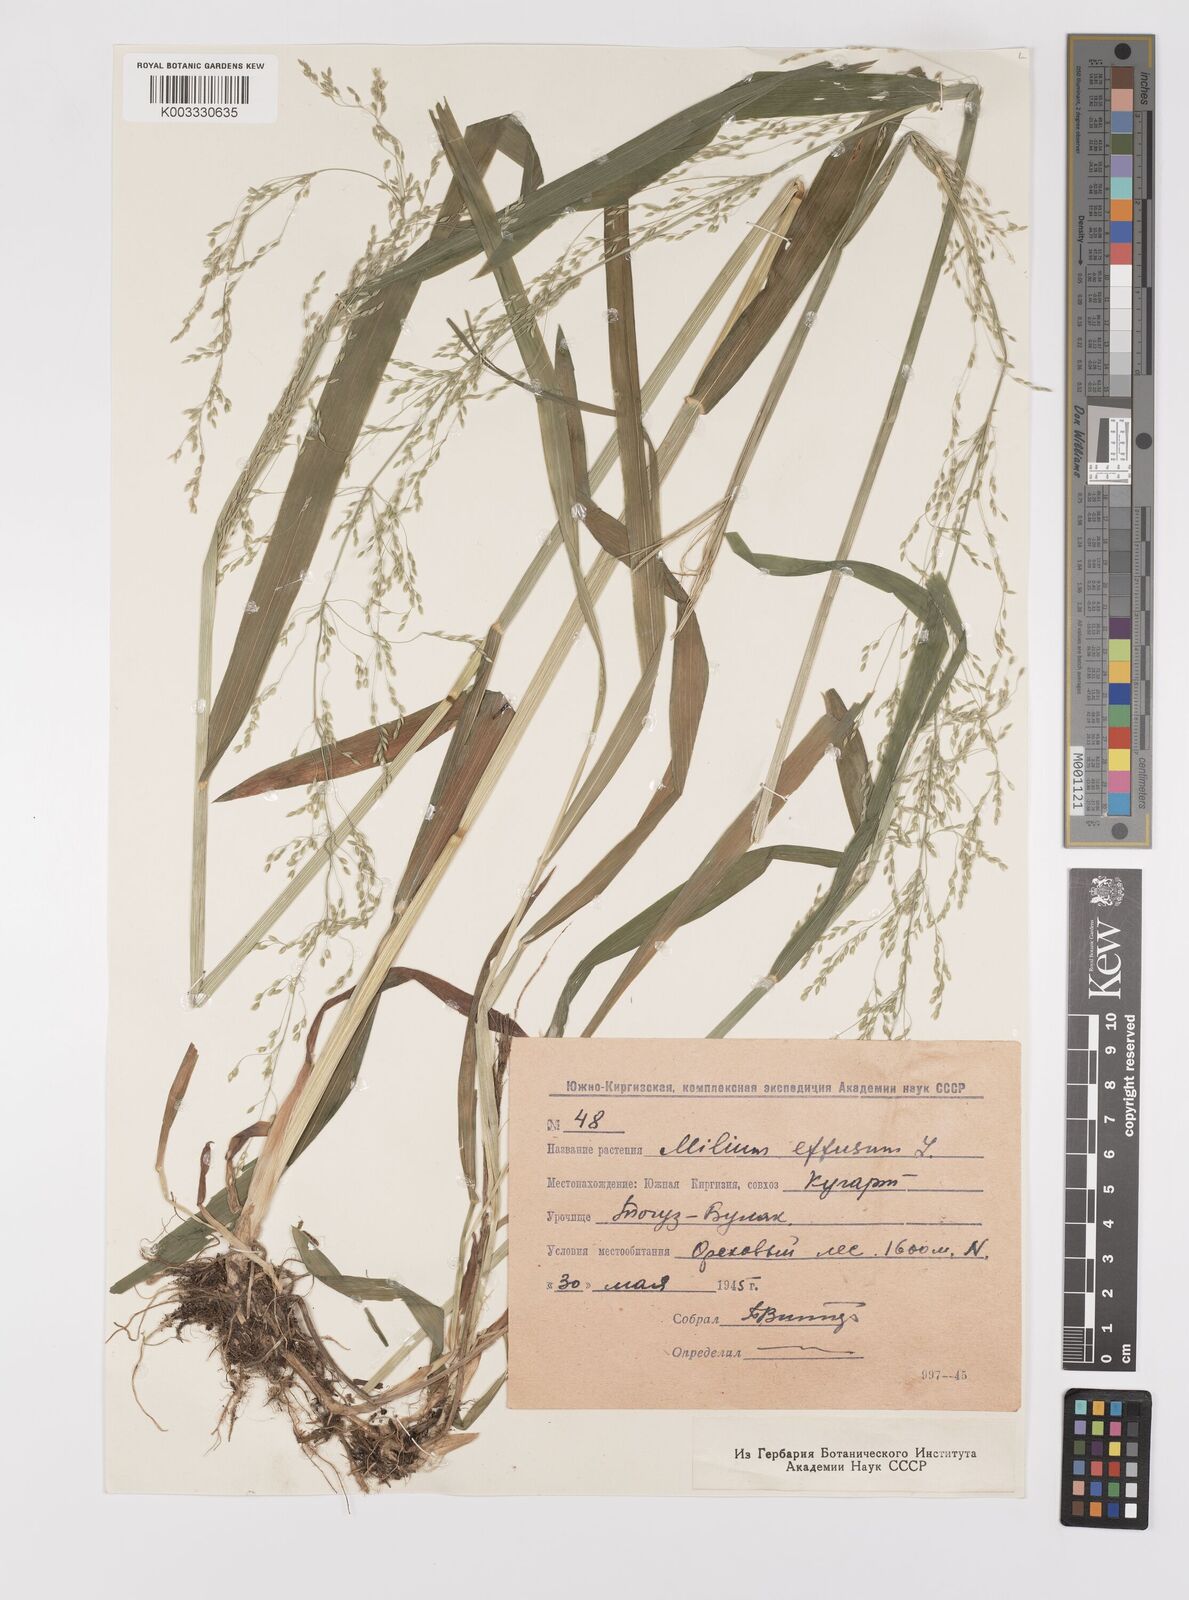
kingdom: Plantae
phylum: Tracheophyta
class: Liliopsida
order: Poales
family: Poaceae
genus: Milium
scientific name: Milium effusum
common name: Wood millet
